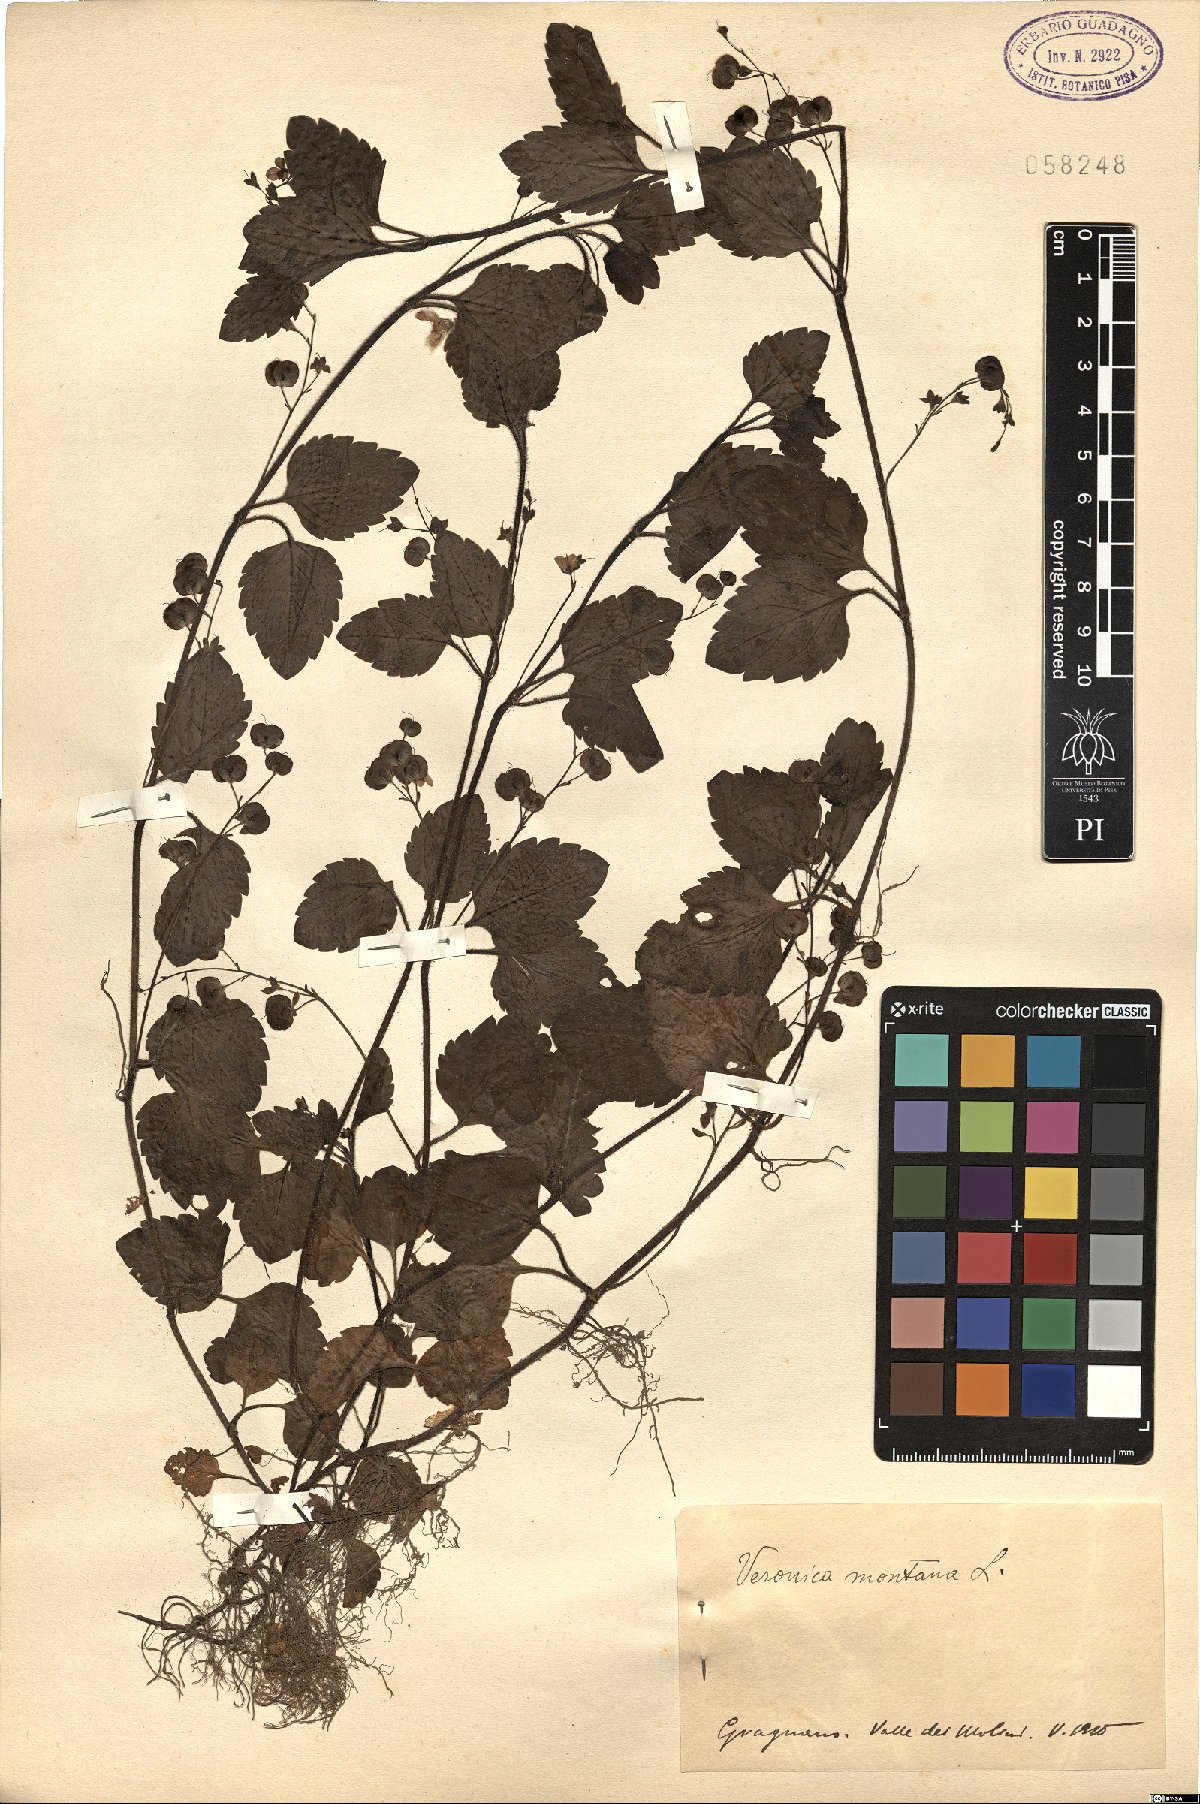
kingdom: Plantae
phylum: Tracheophyta
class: Magnoliopsida
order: Lamiales
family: Plantaginaceae
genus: Veronica
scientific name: Veronica montana
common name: Wood speedwell
